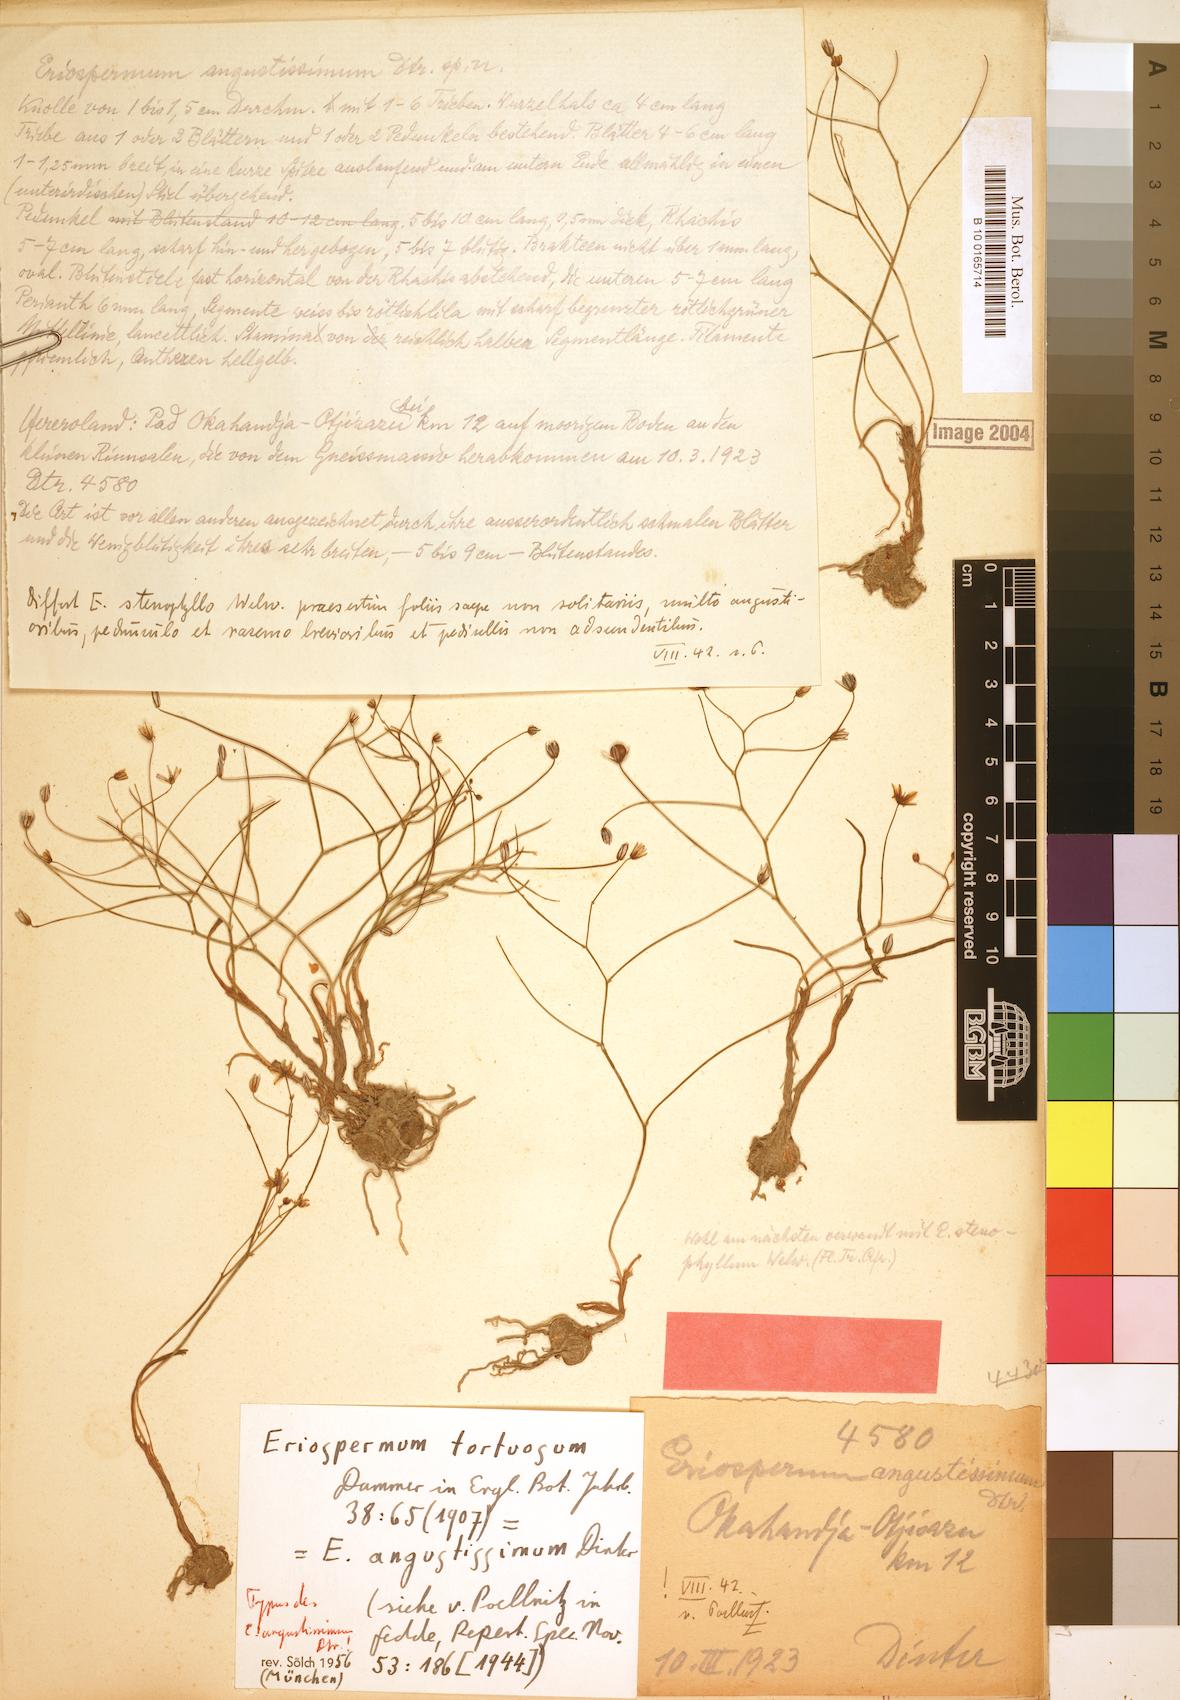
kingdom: Plantae
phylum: Tracheophyta
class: Liliopsida
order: Asparagales
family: Asparagaceae
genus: Eriospermum
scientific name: Eriospermum bakerianum
